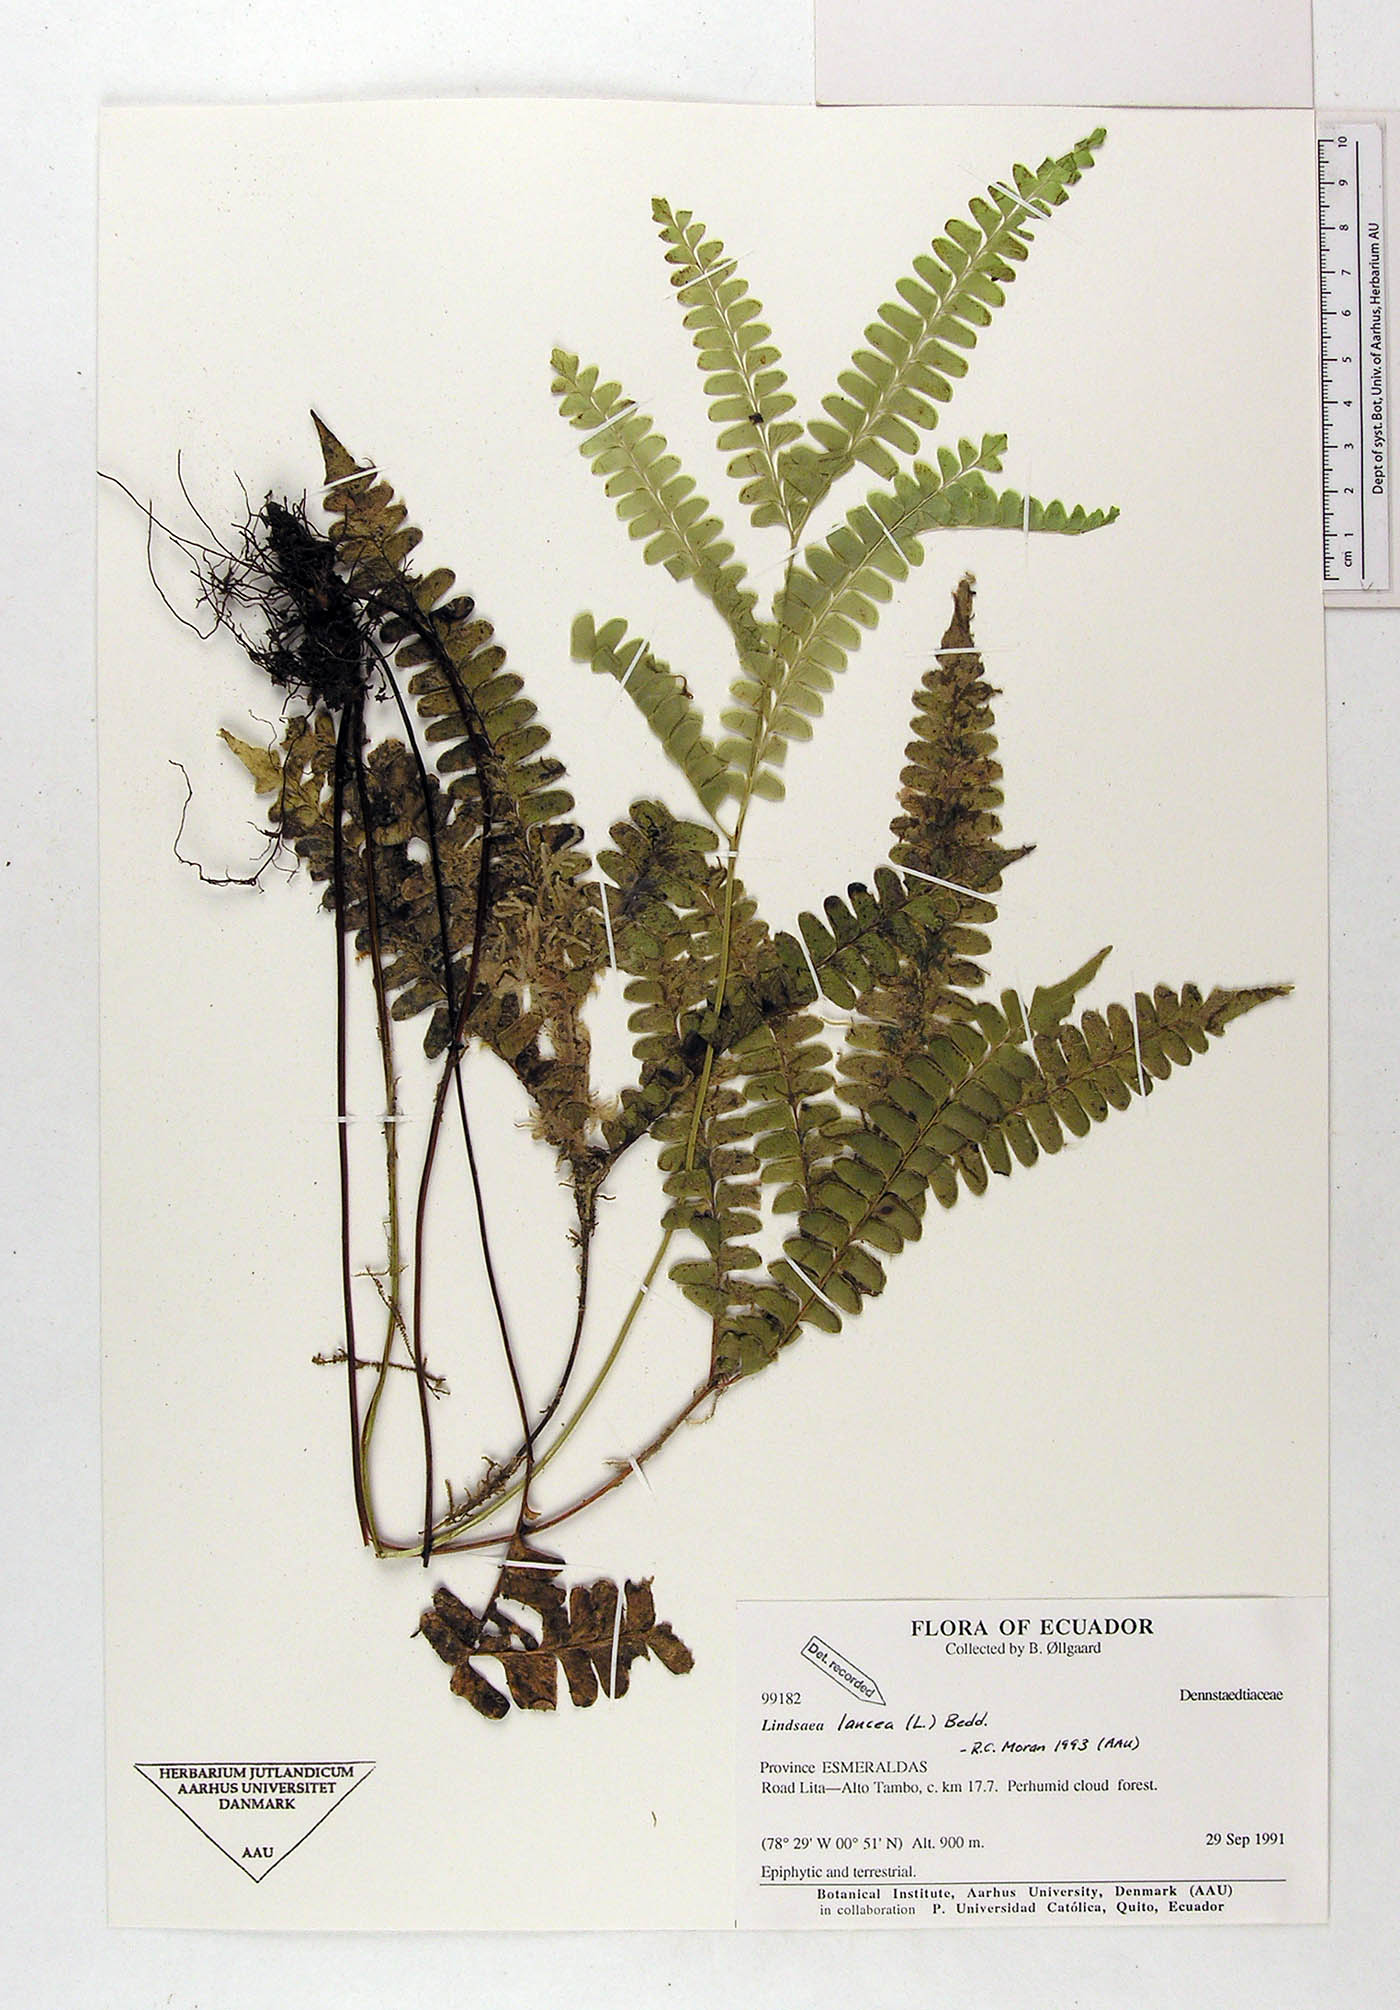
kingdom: Plantae
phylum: Tracheophyta
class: Polypodiopsida
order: Polypodiales
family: Dennstaedtiaceae
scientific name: Dennstaedtiaceae
